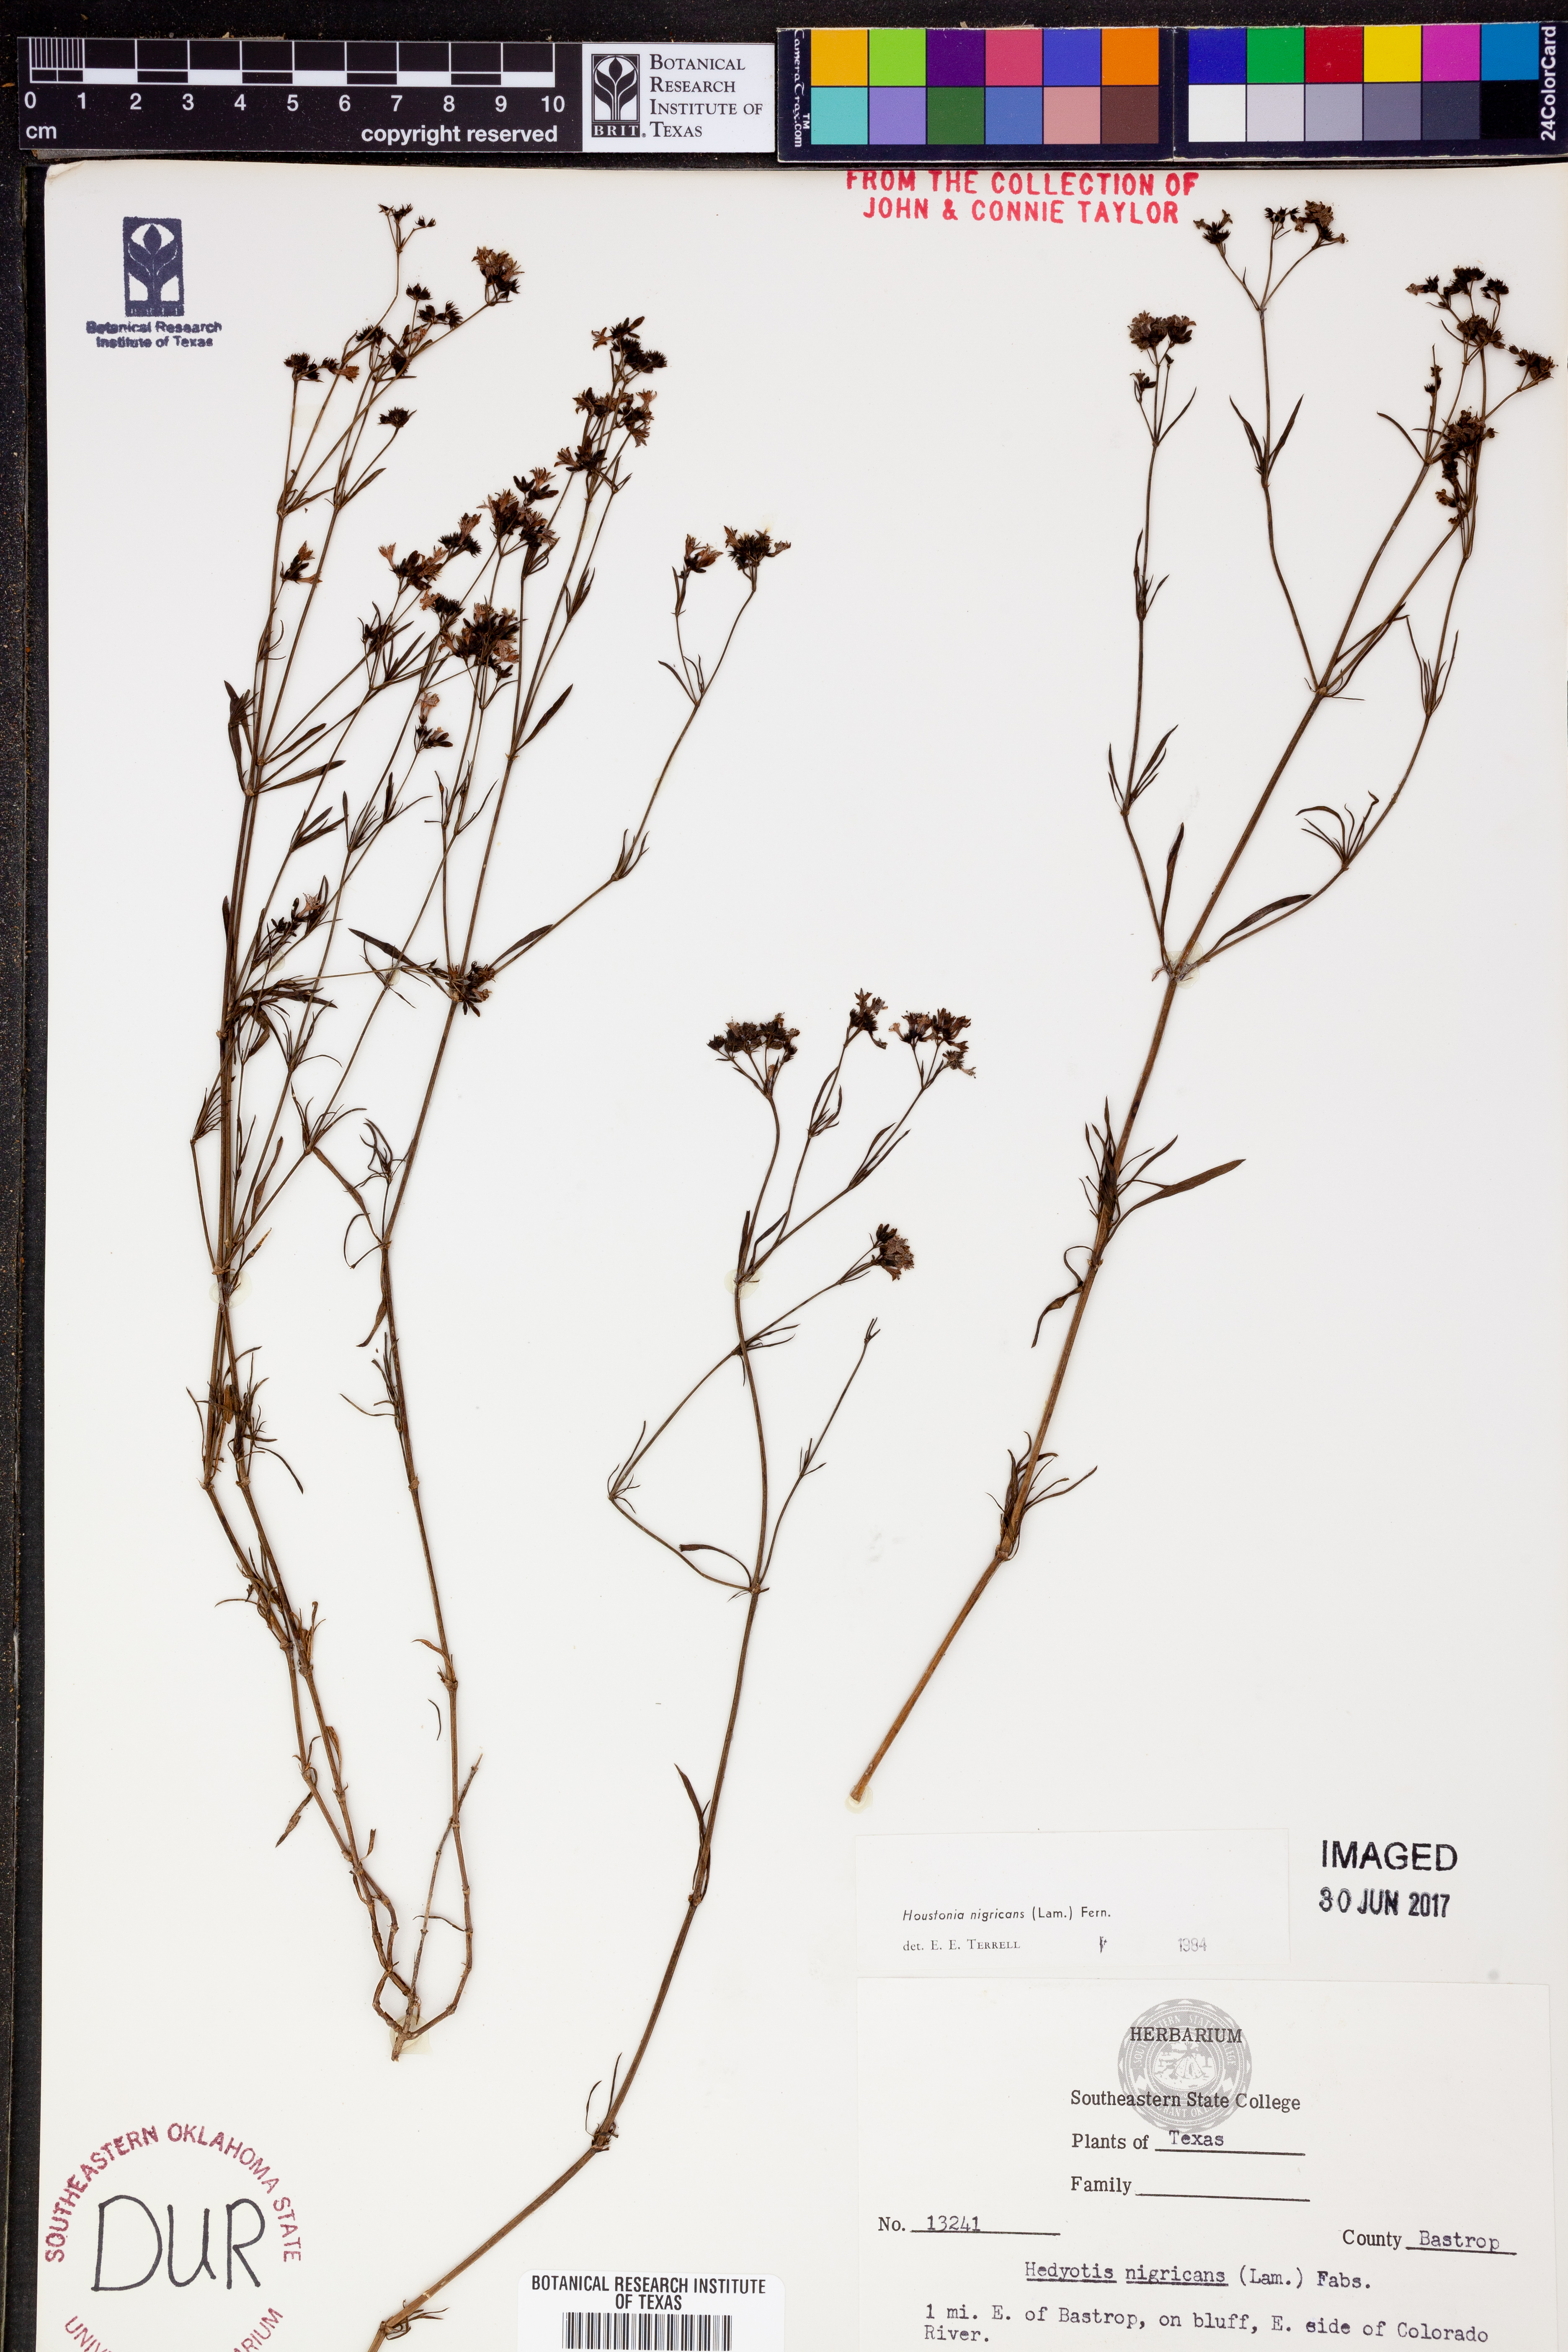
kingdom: Plantae
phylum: Tracheophyta
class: Magnoliopsida
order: Gentianales
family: Rubiaceae
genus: Stenaria
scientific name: Stenaria nigricans
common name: Diamondflowers
